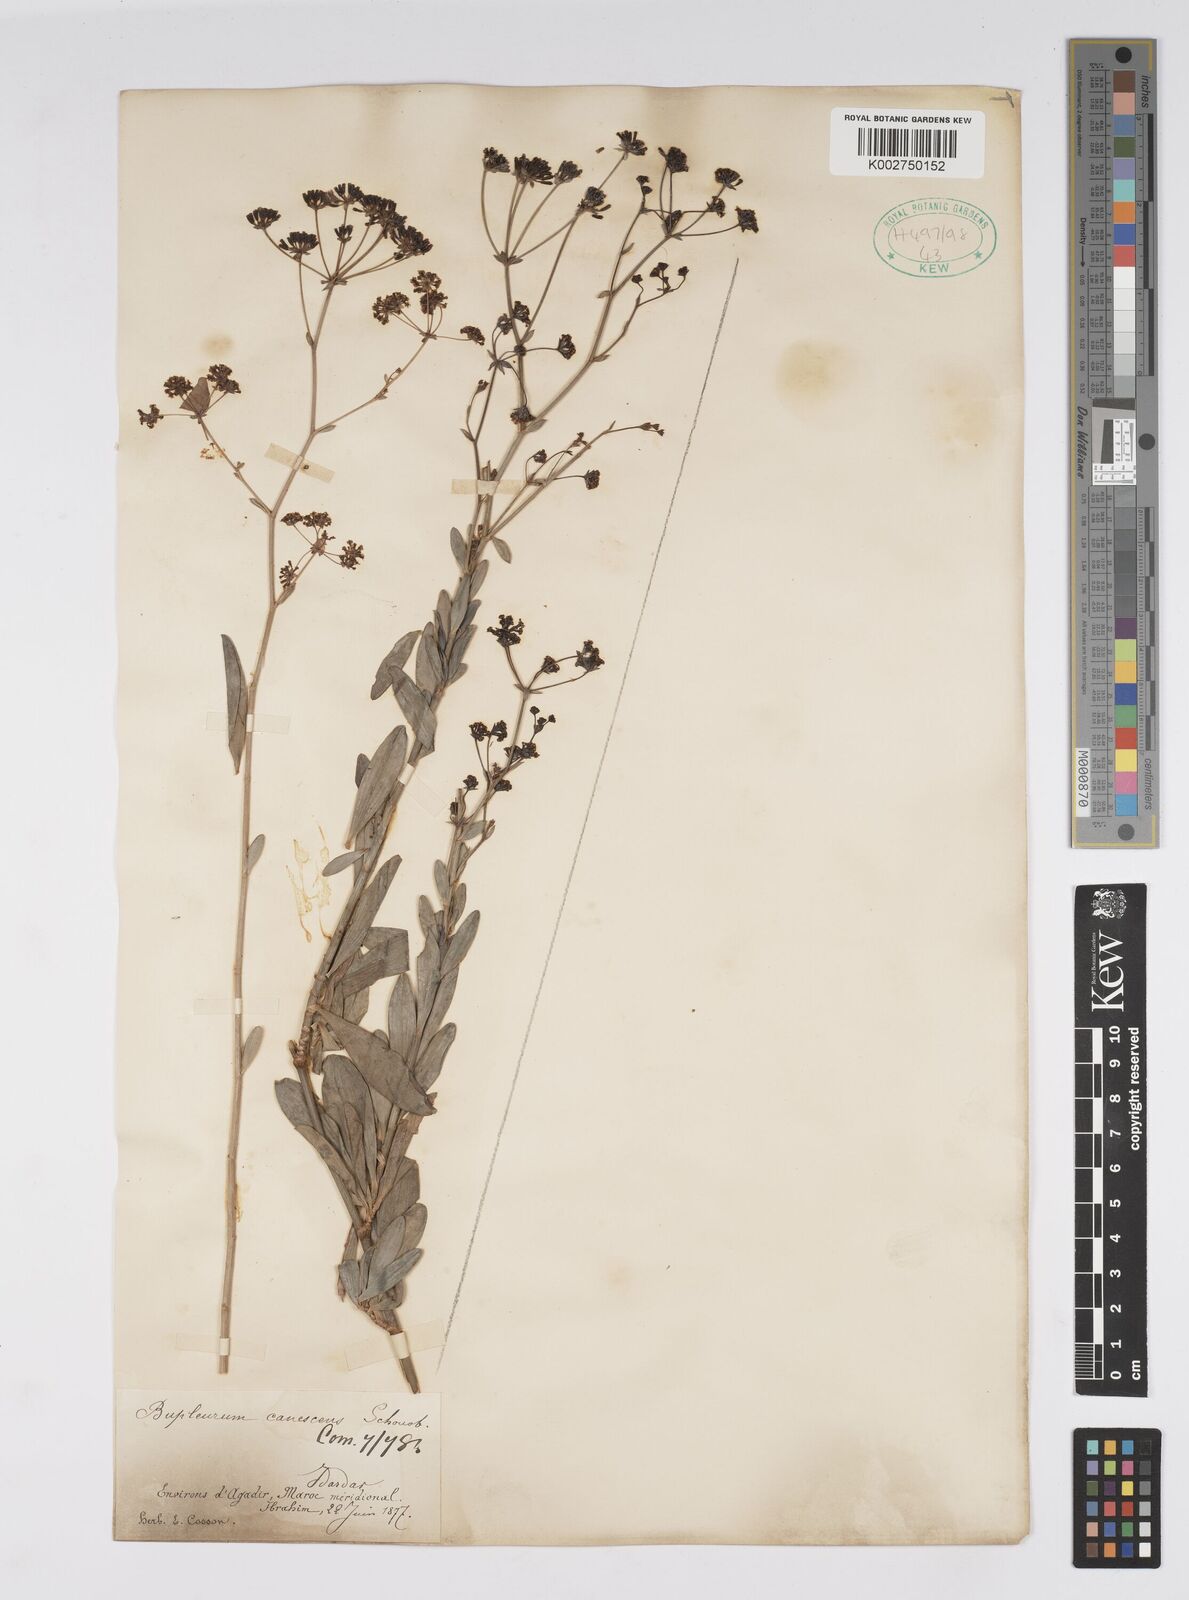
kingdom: Plantae
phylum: Tracheophyta
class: Magnoliopsida
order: Apiales
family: Apiaceae
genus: Bupleurum
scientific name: Bupleurum canescens
